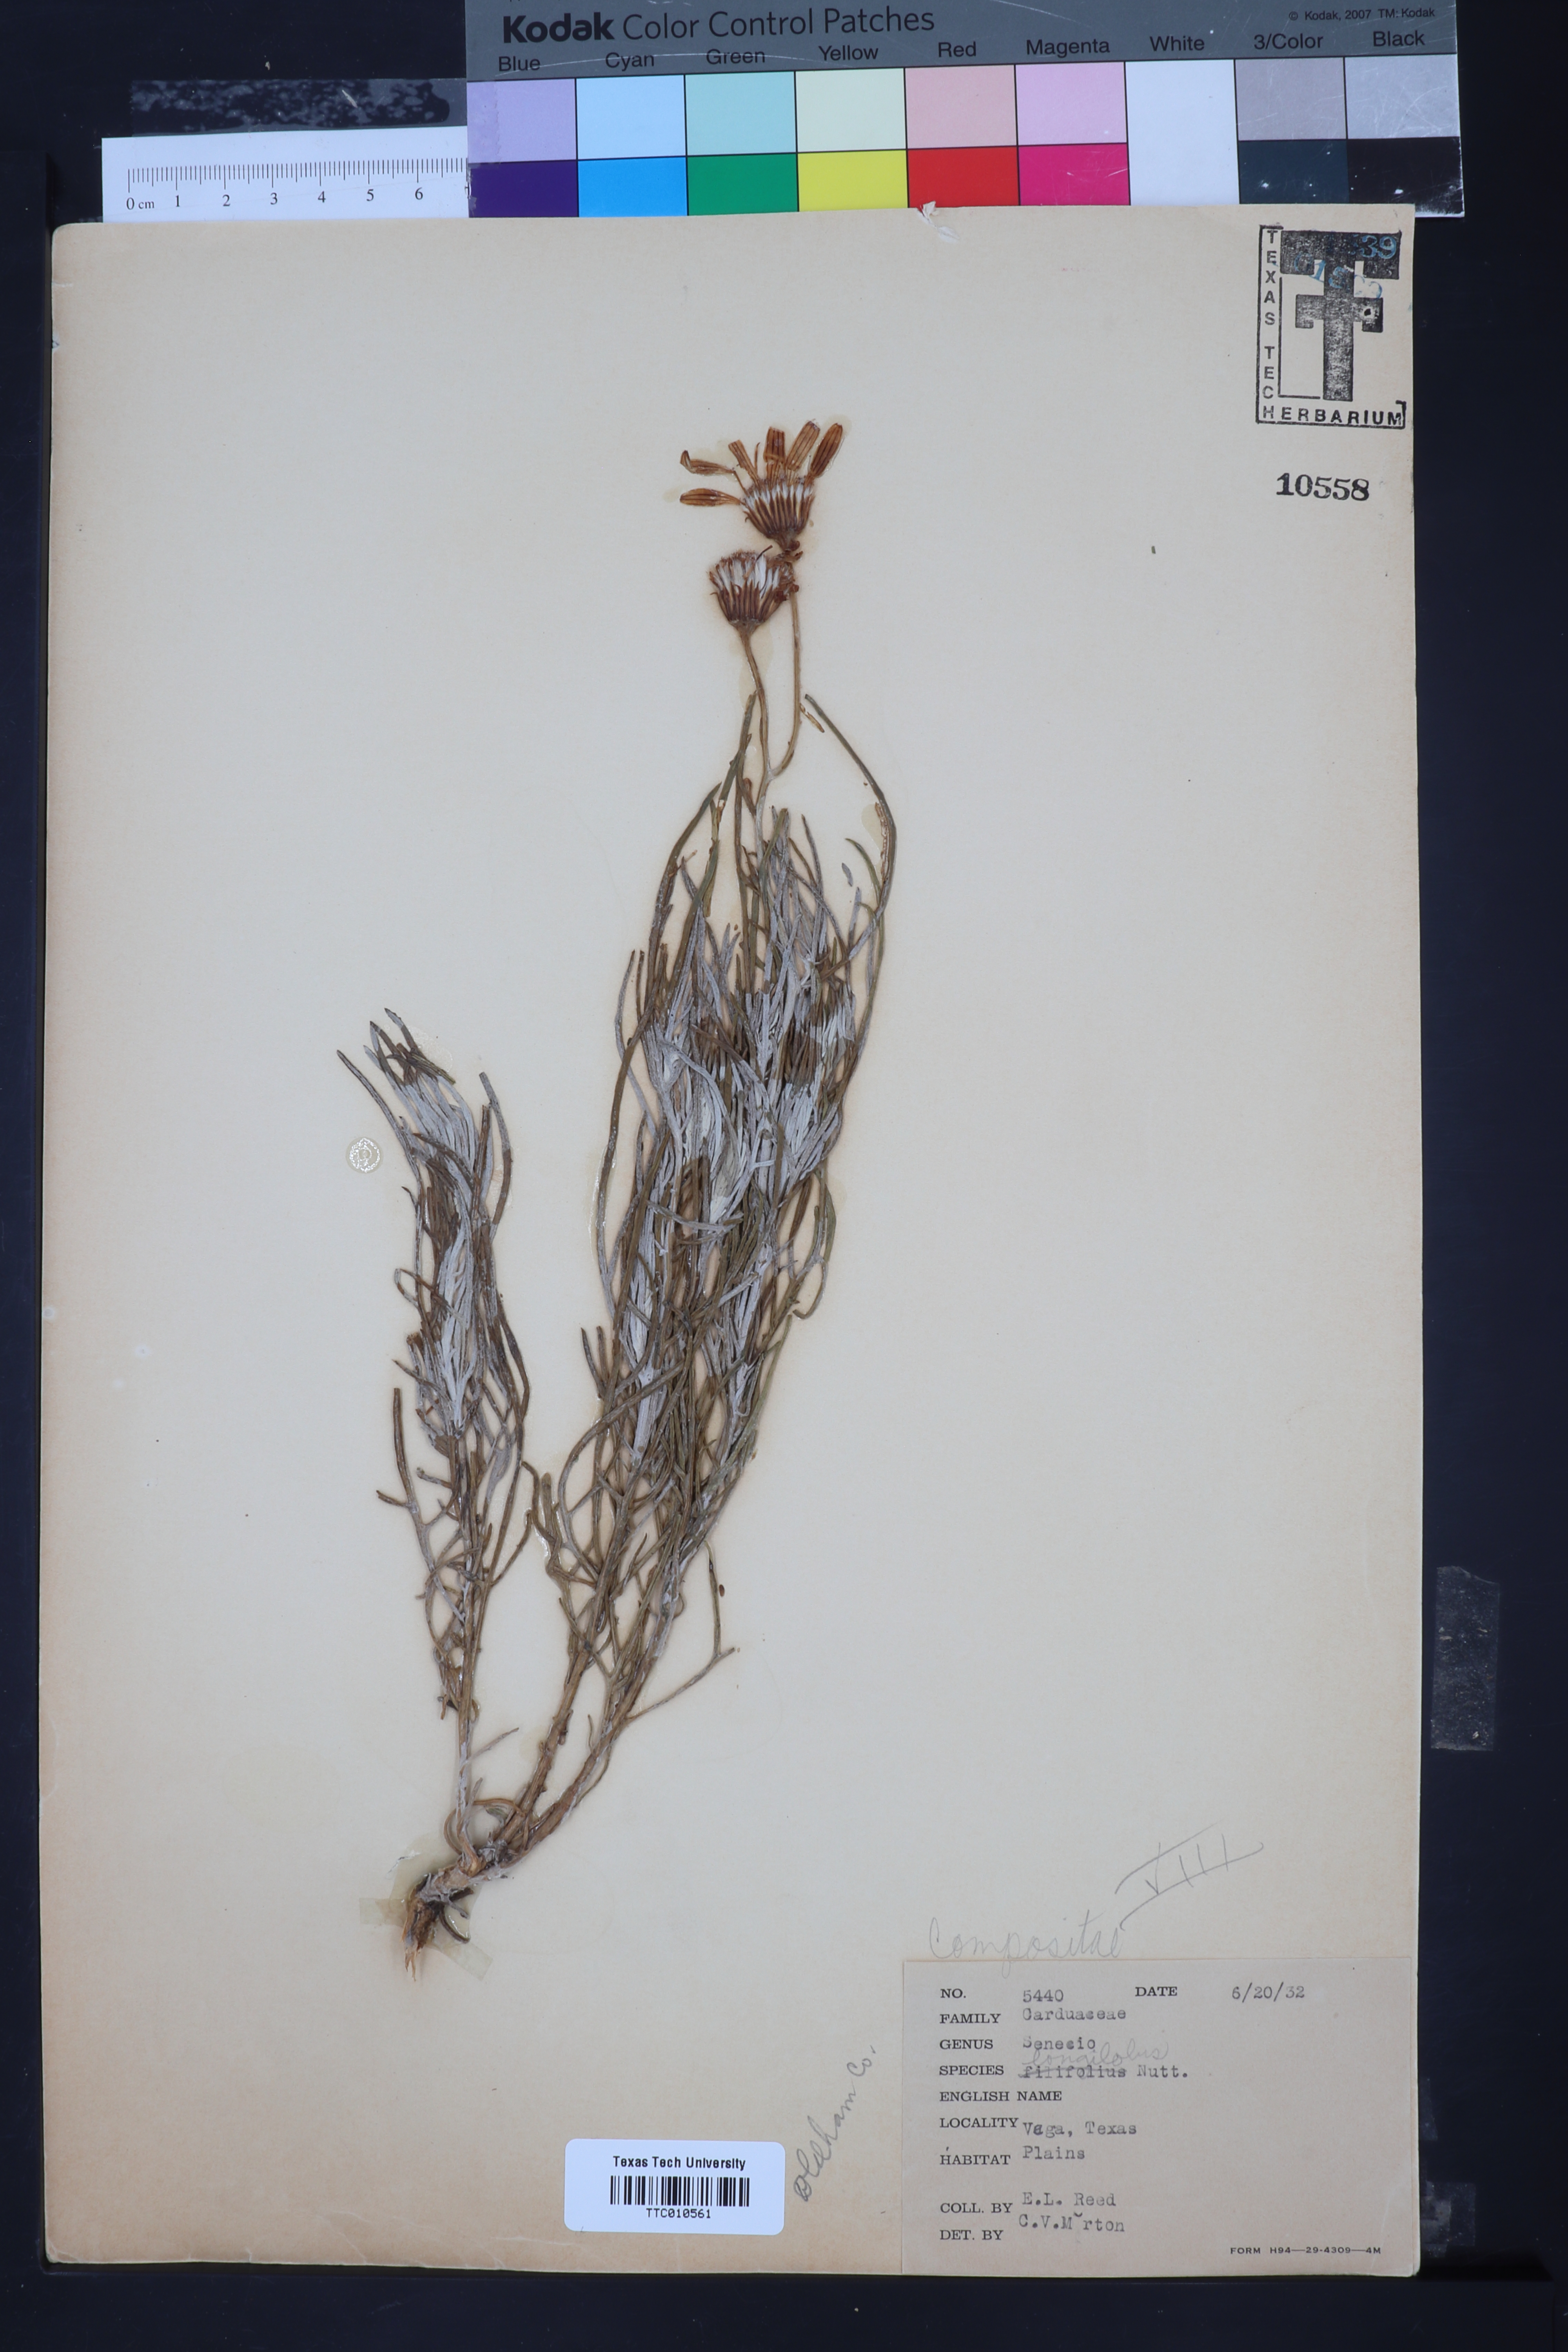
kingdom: Plantae
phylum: Tracheophyta
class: Magnoliopsida
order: Asterales
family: Asteraceae
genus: Senecio
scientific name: Senecio flaccidus
